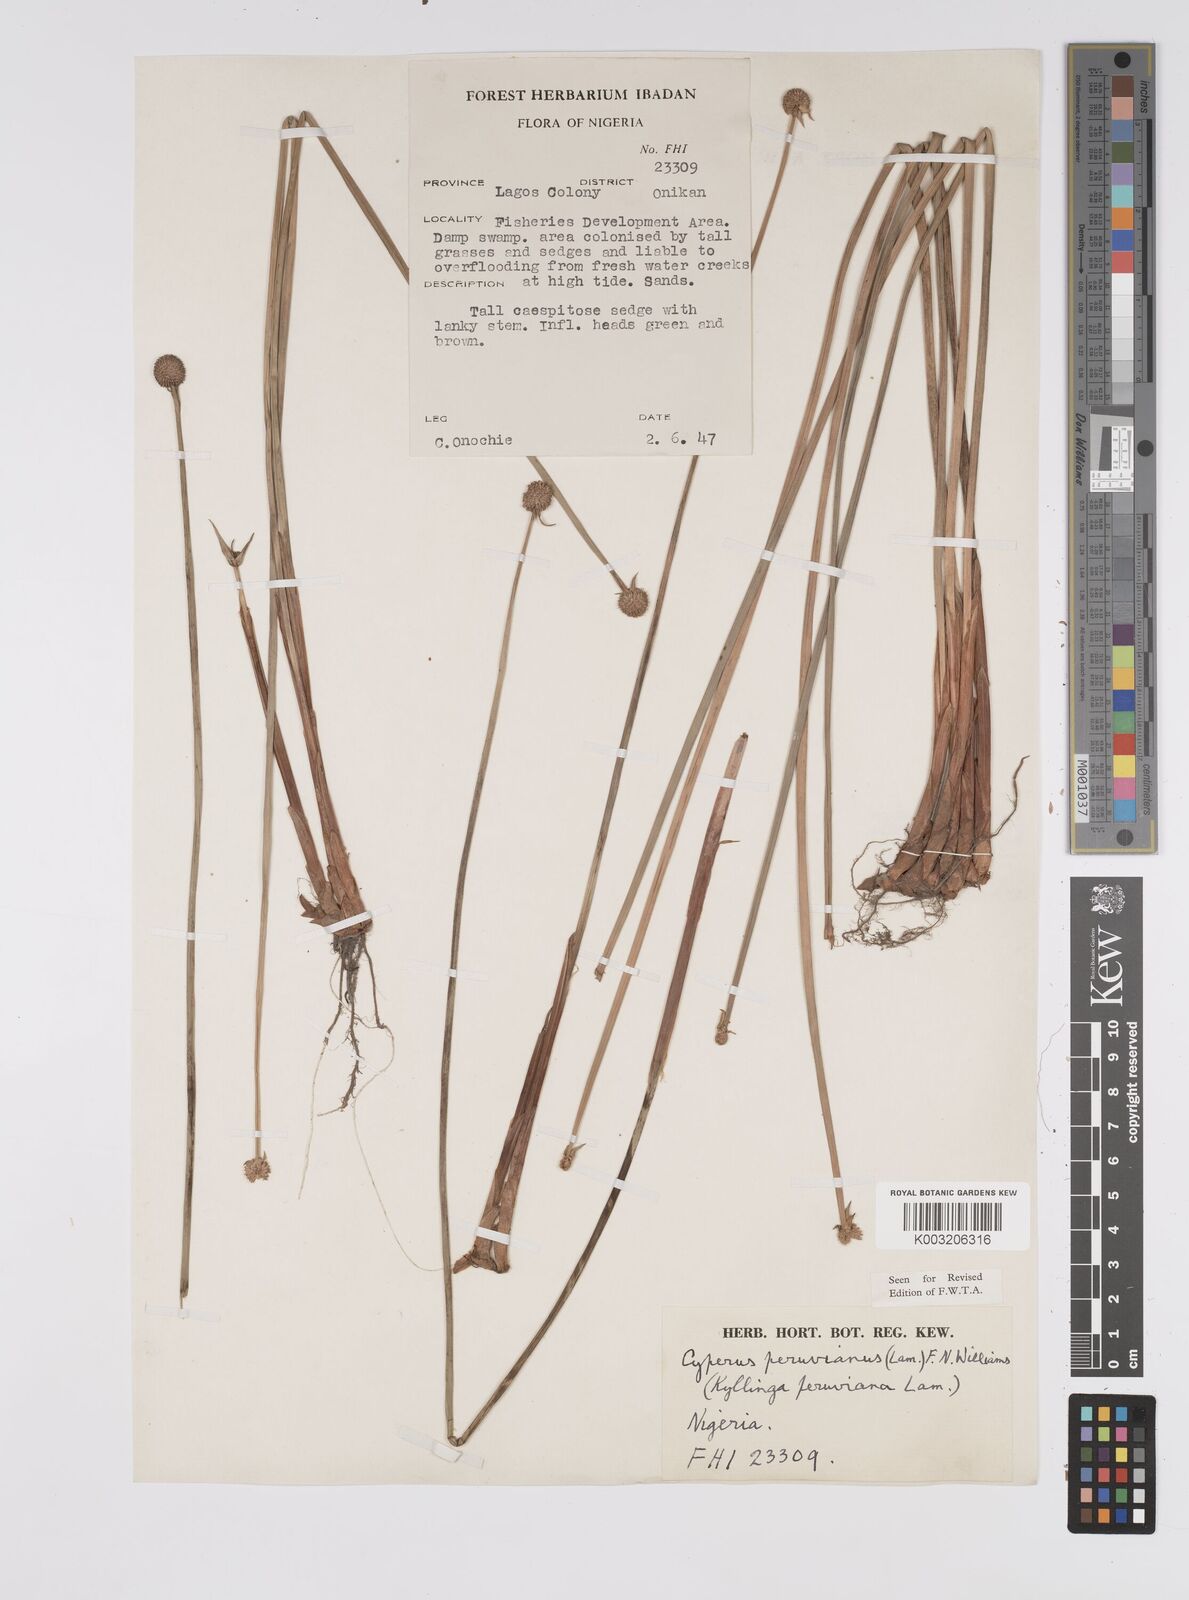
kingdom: Plantae
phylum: Tracheophyta
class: Liliopsida
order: Poales
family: Cyperaceae
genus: Cyperus
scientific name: Cyperus
